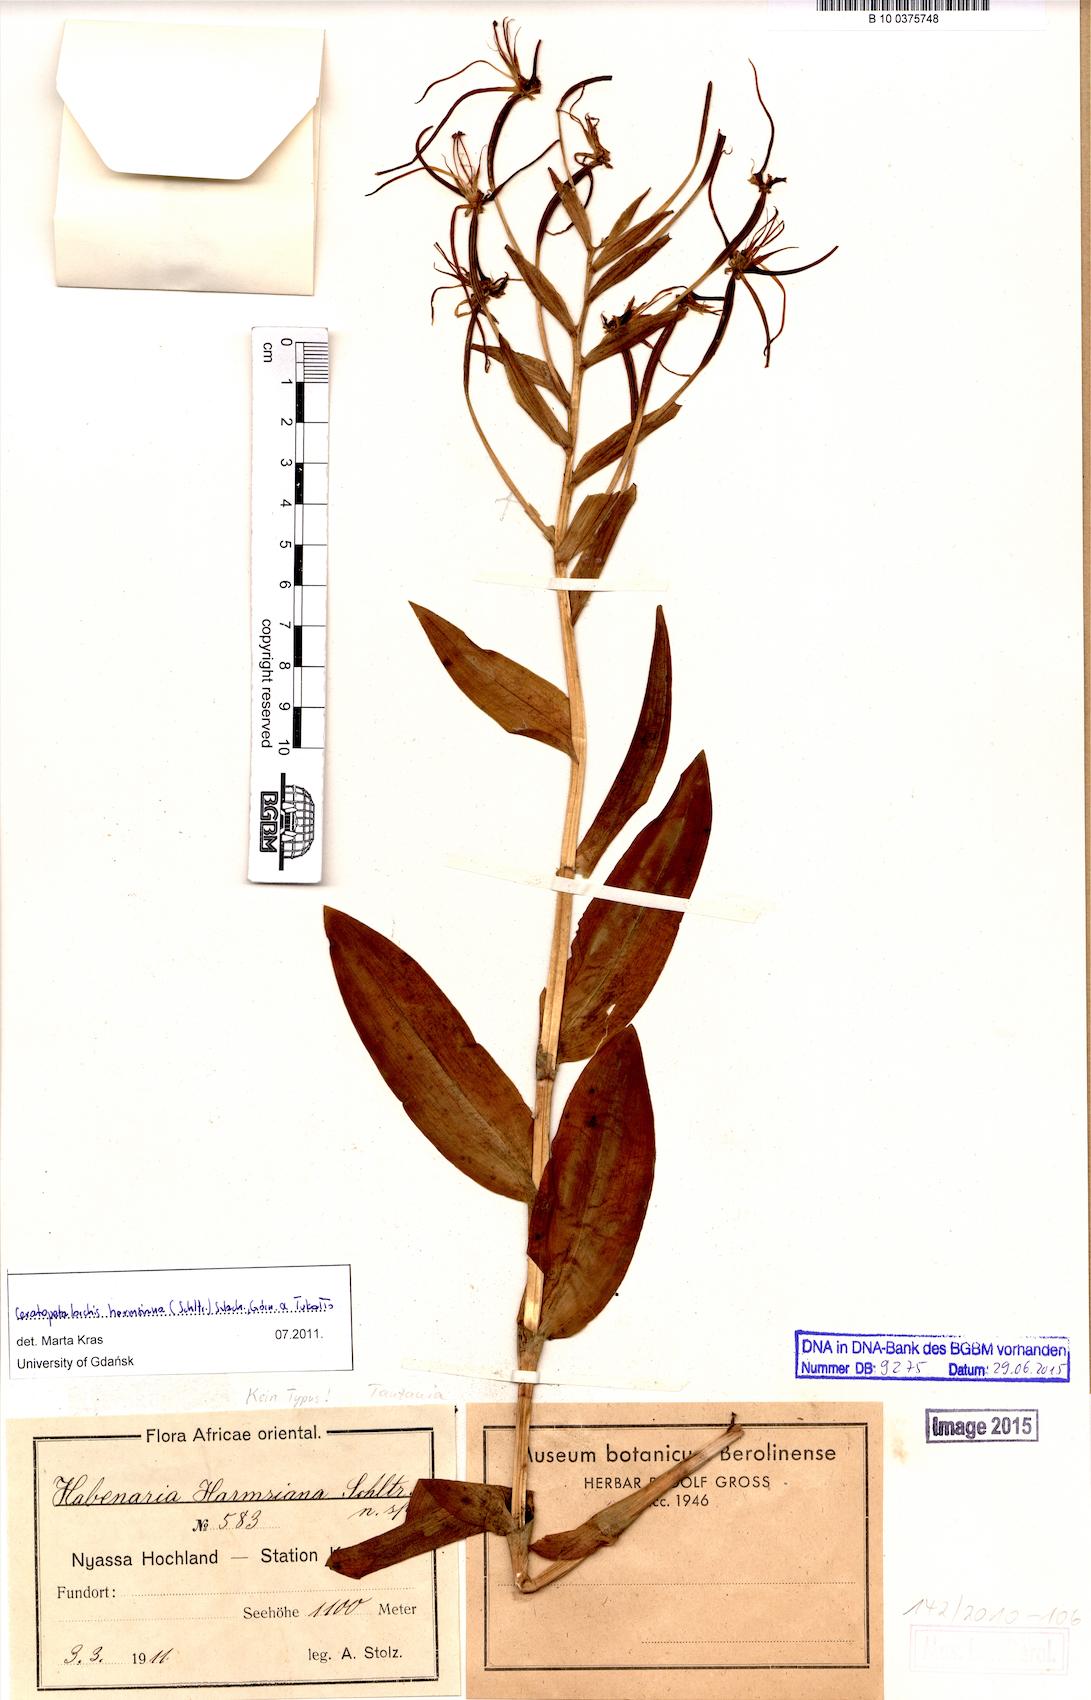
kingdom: Plantae
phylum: Tracheophyta
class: Liliopsida
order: Asparagales
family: Orchidaceae
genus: Habenaria
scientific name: Habenaria harmsiana
